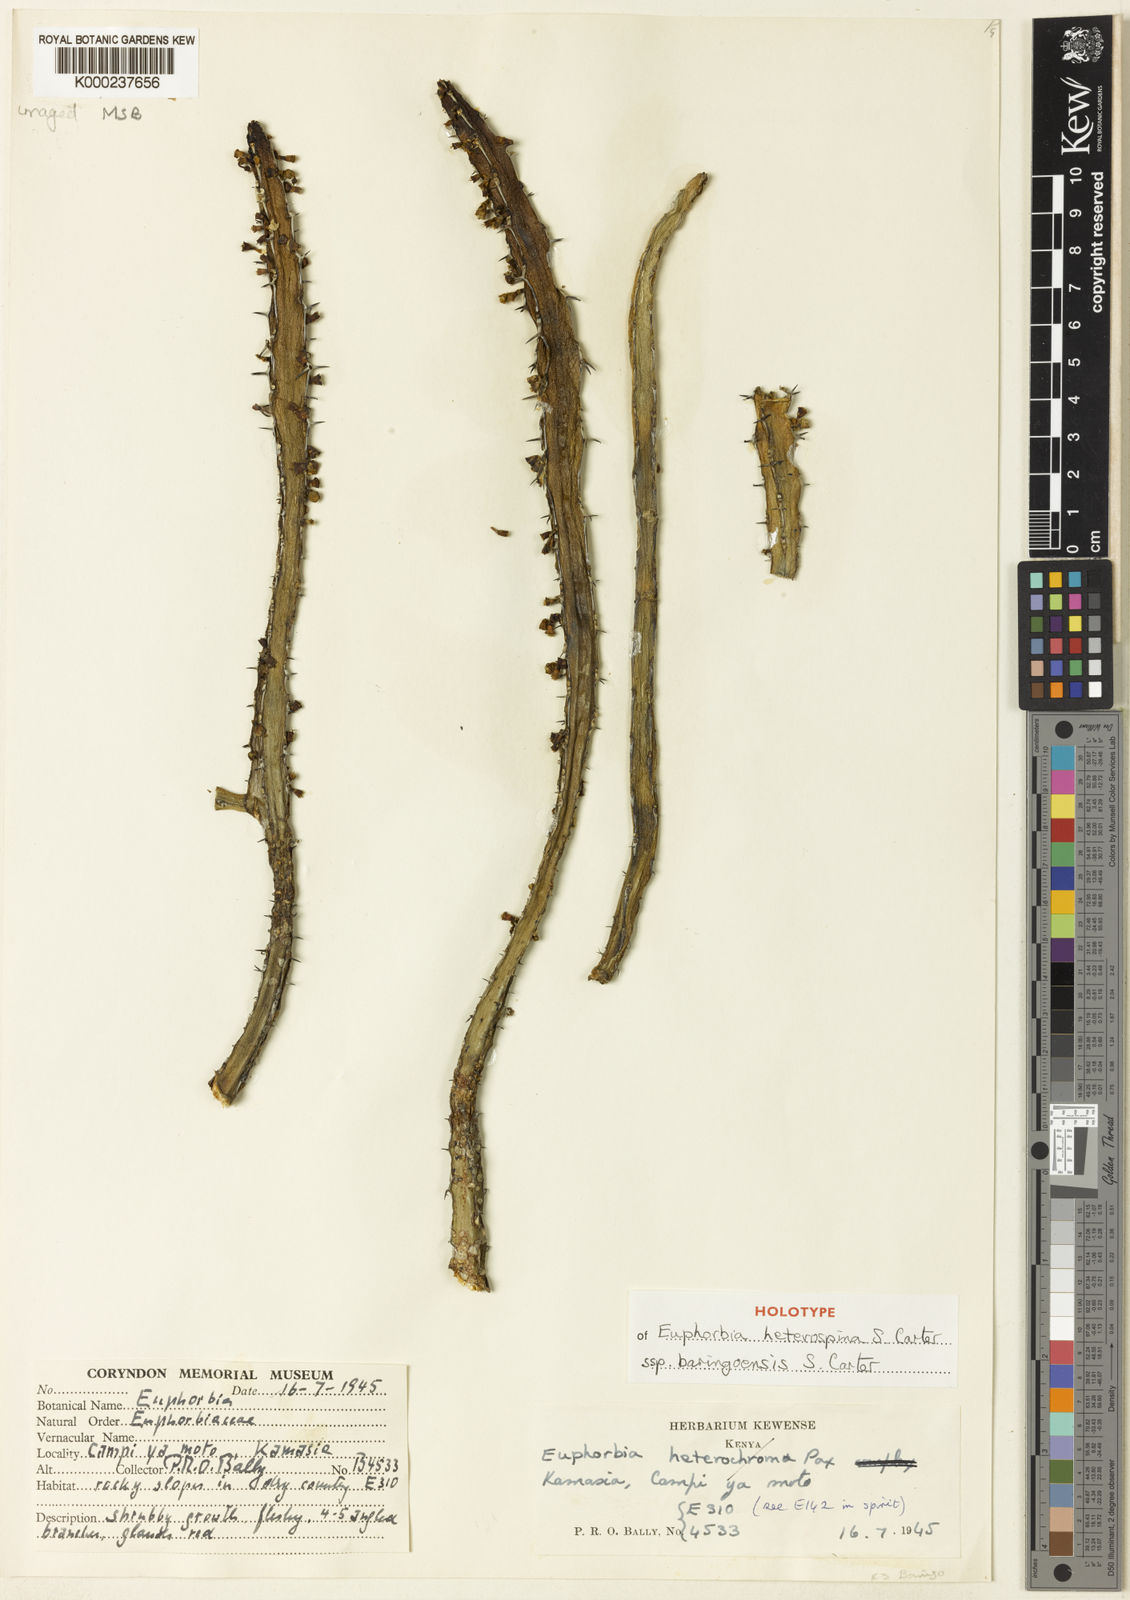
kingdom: Plantae
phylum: Tracheophyta
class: Magnoliopsida
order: Malpighiales
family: Euphorbiaceae
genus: Euphorbia
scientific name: Euphorbia heterospina
